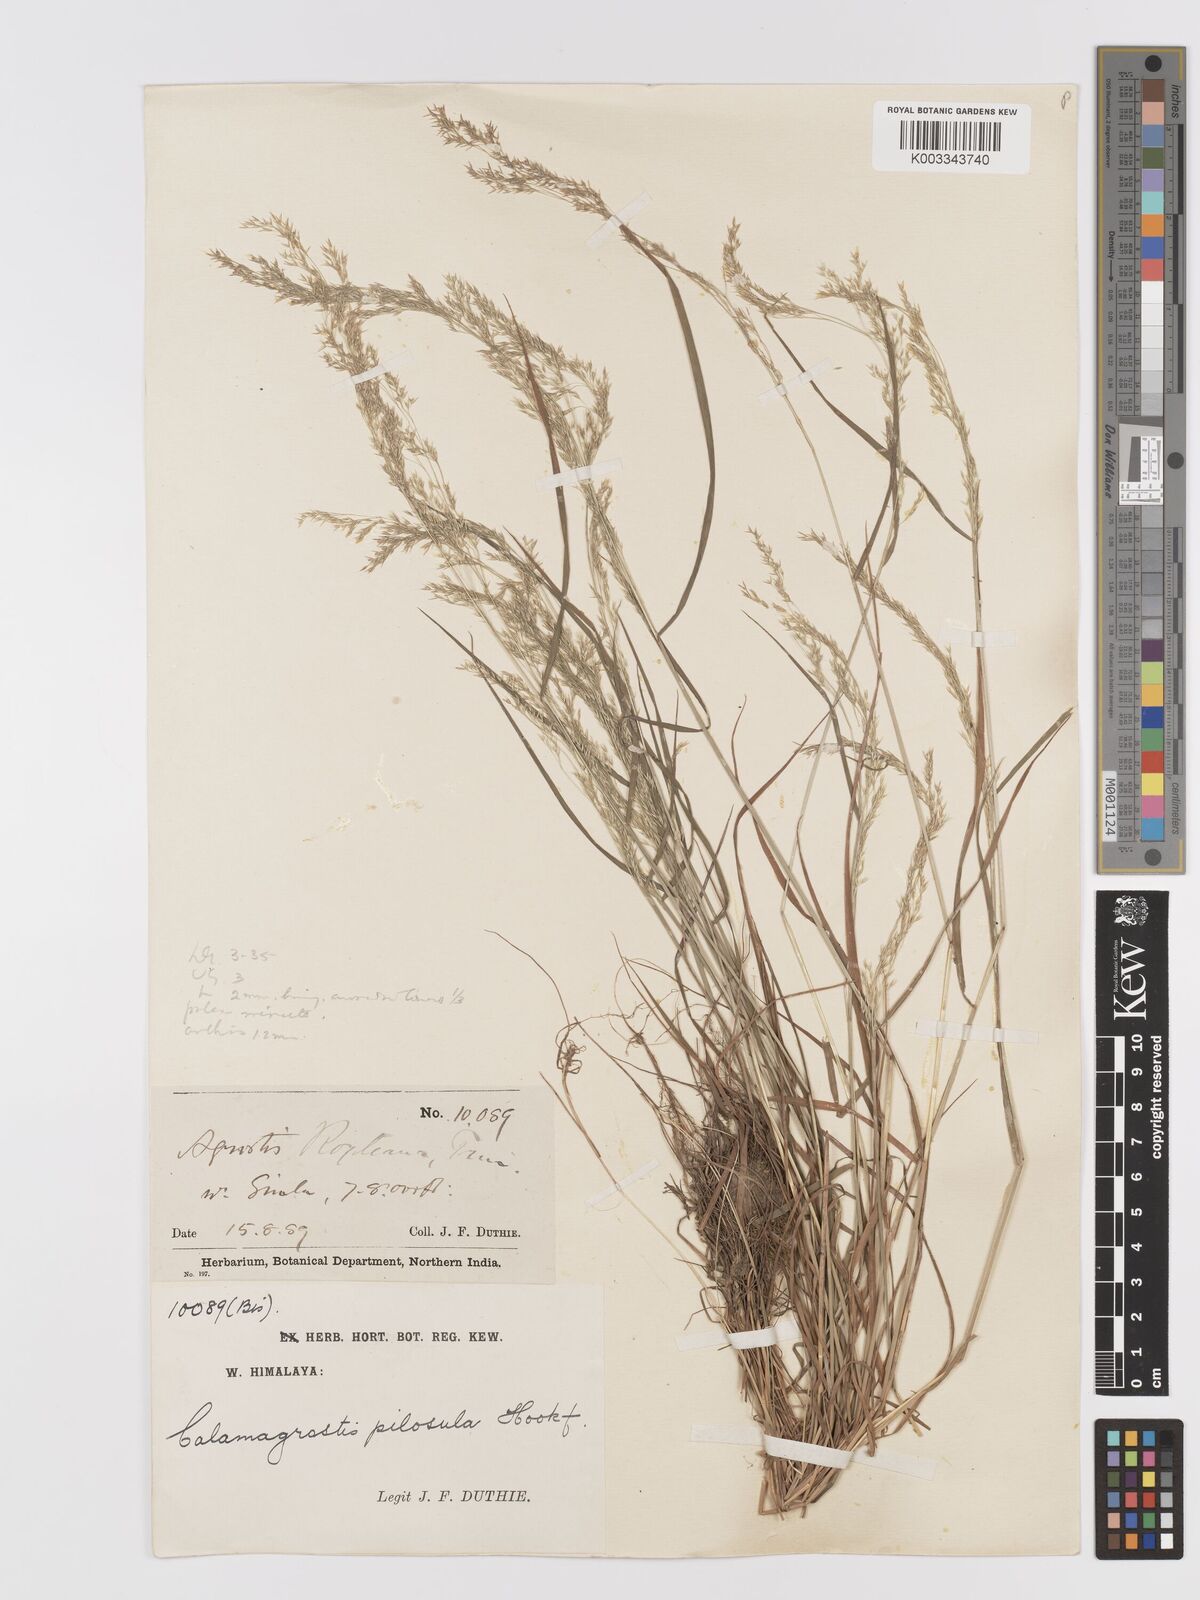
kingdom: Plantae
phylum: Tracheophyta
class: Liliopsida
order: Poales
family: Poaceae
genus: Agrostis
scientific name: Agrostis pilosula
